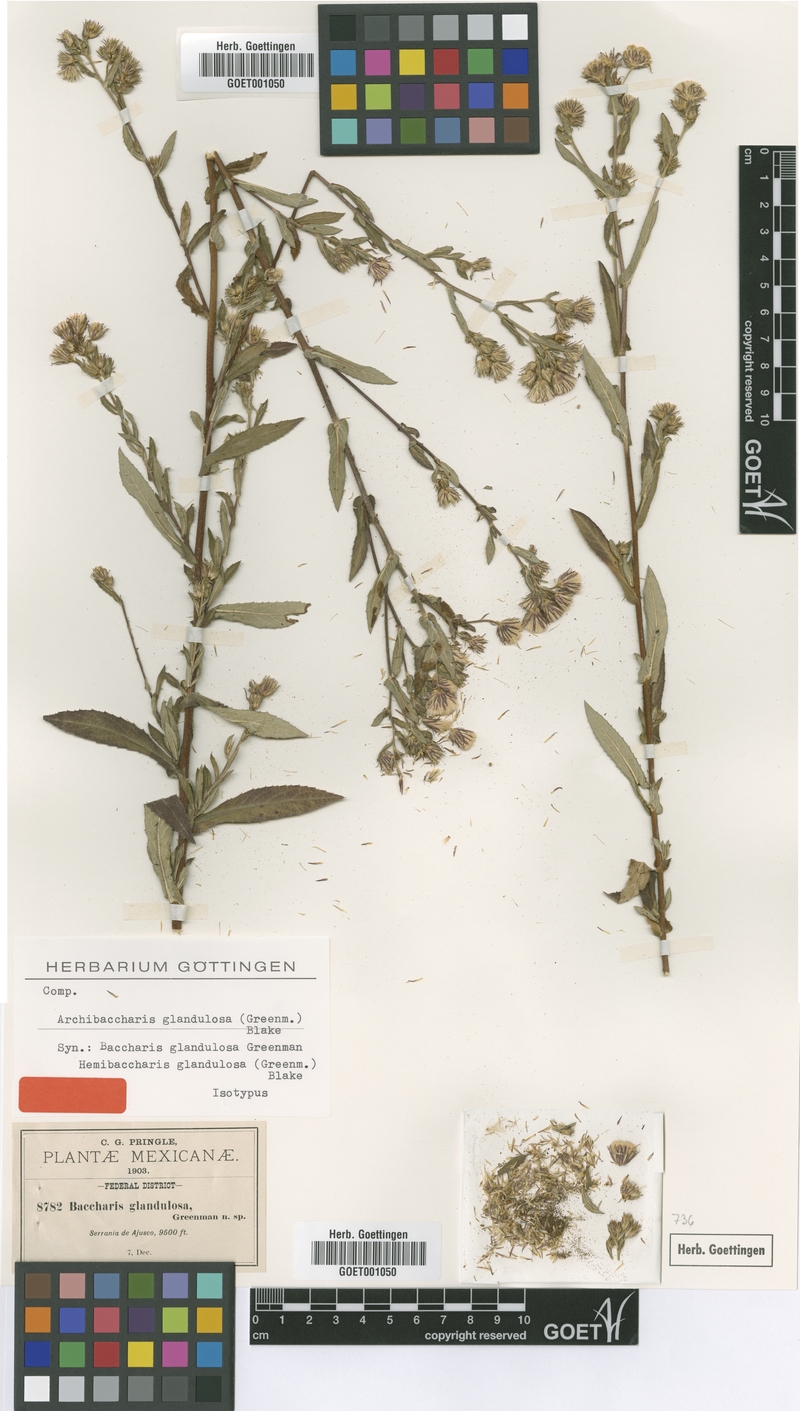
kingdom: Plantae
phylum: Tracheophyta
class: Magnoliopsida
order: Asterales
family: Asteraceae
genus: Archibaccharis
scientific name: Archibaccharis auriculata
